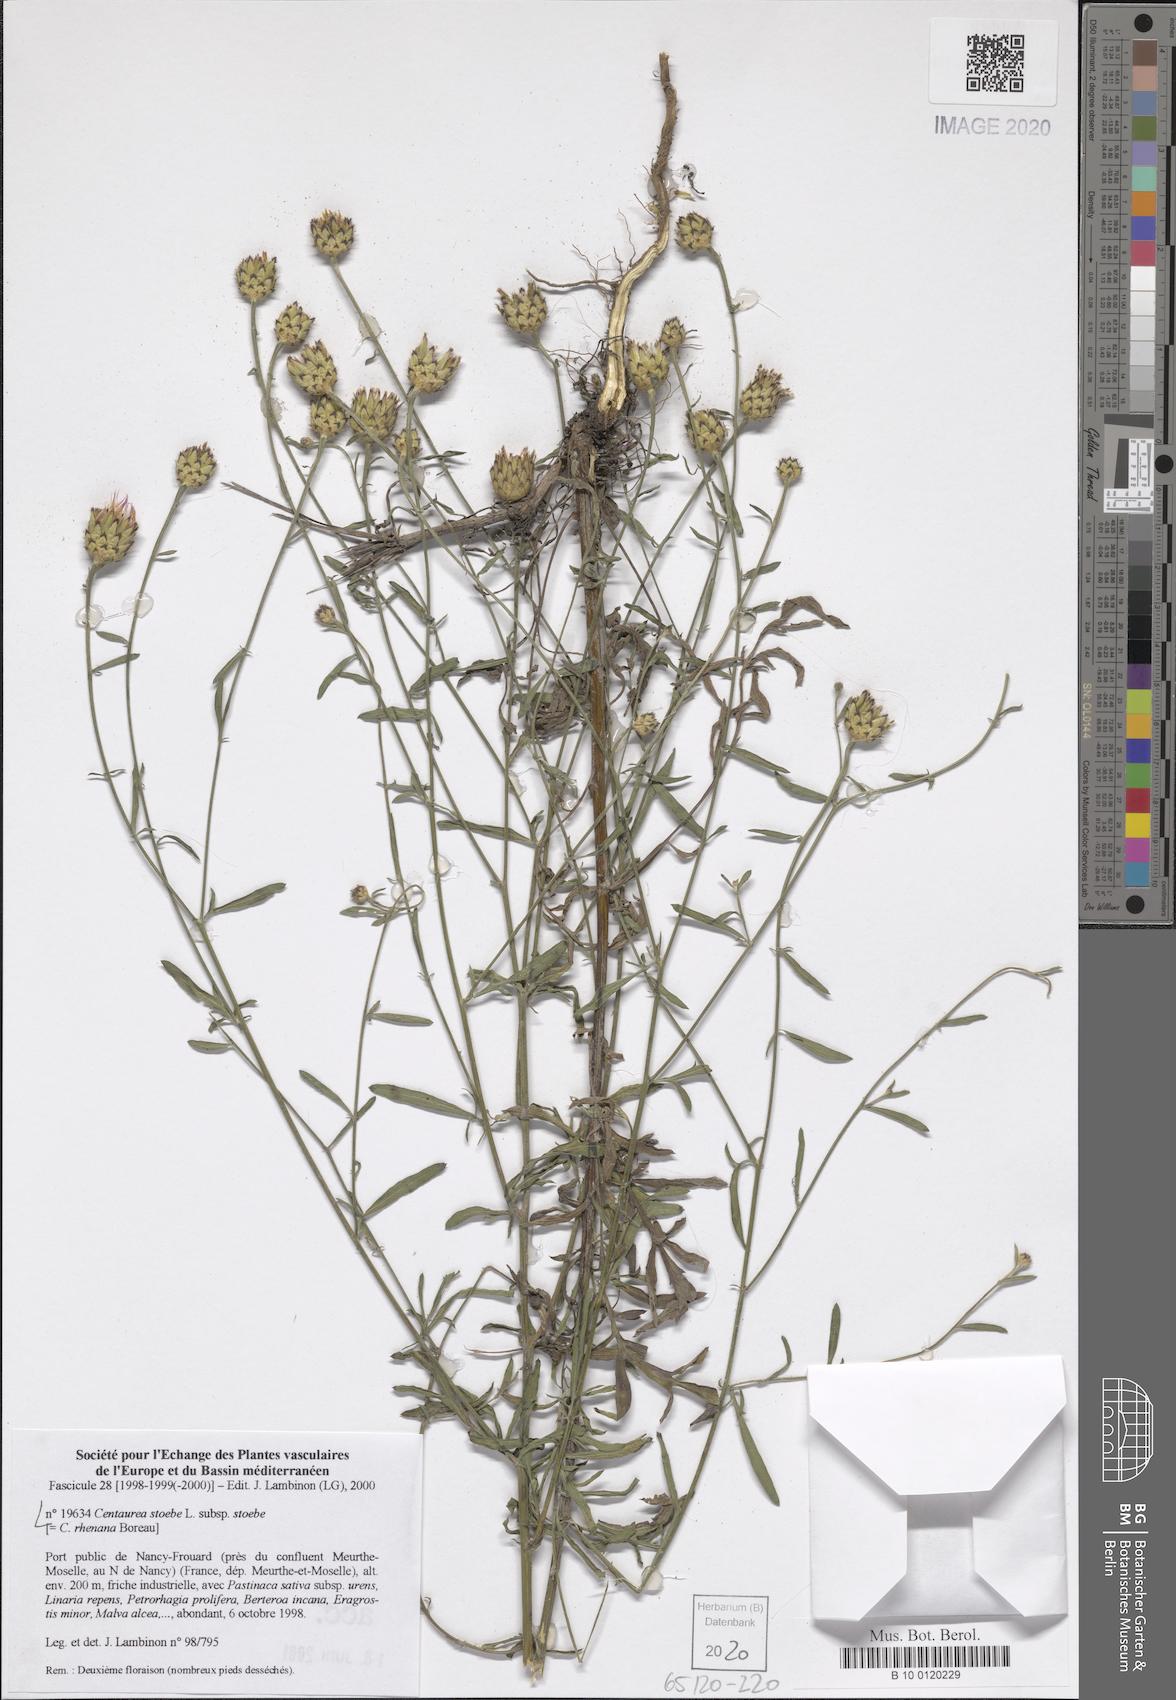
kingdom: Plantae
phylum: Tracheophyta
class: Magnoliopsida
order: Asterales
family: Asteraceae
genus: Centaurea
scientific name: Centaurea stoebe
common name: Spotted knapweed
